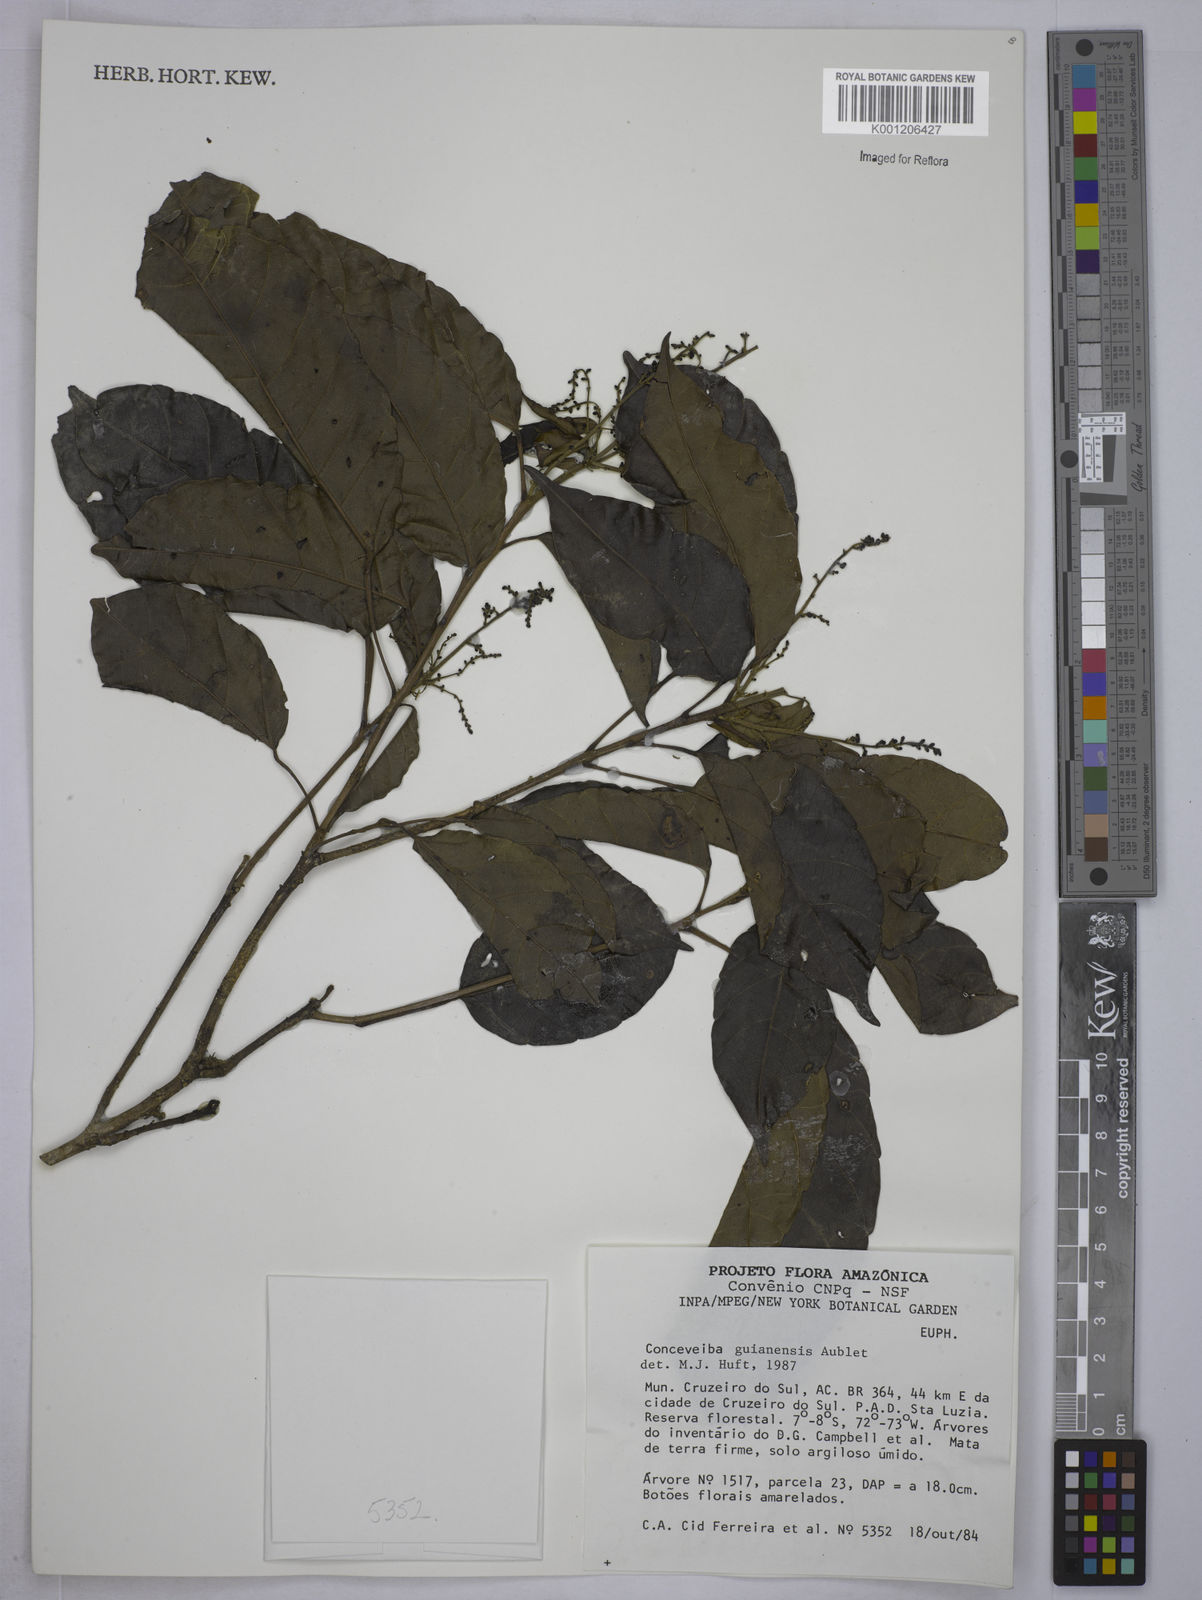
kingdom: Plantae
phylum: Tracheophyta
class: Magnoliopsida
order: Malpighiales
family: Euphorbiaceae
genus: Conceveiba
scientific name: Conceveiba guianensis
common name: Poatoru
